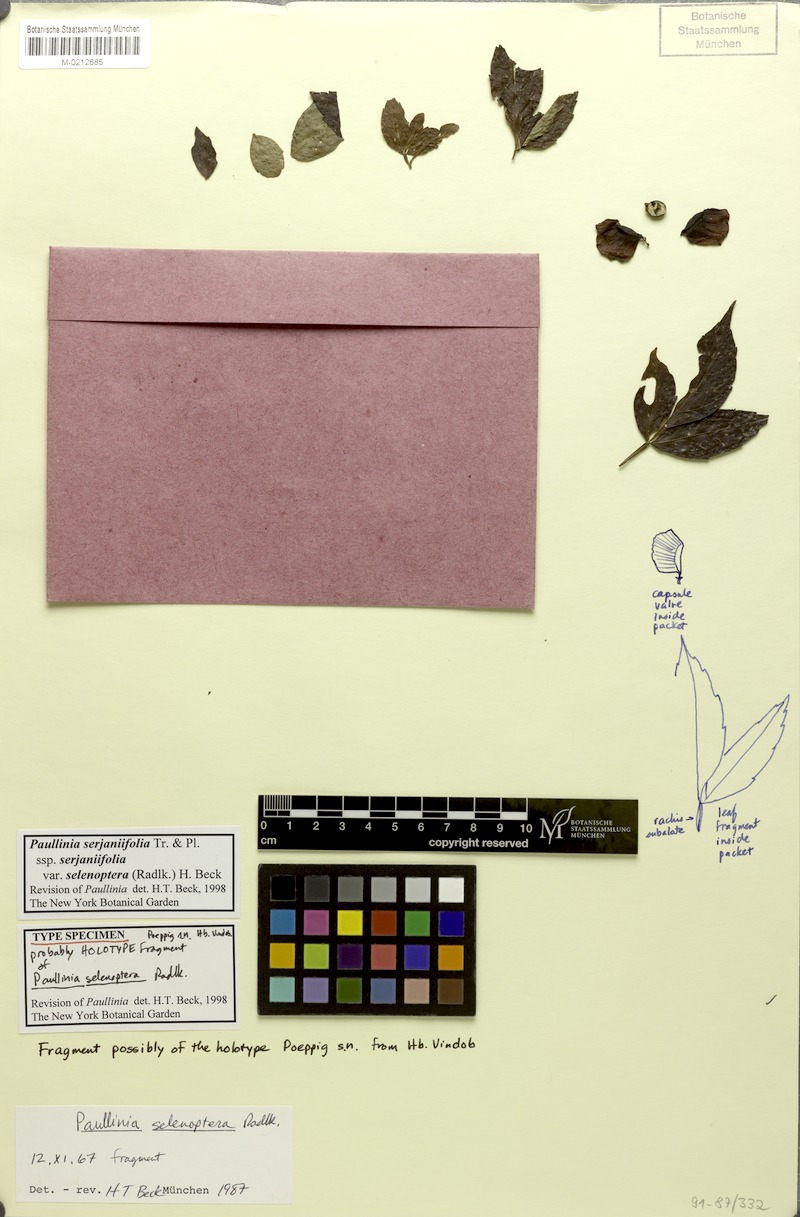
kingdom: Plantae
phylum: Tracheophyta
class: Magnoliopsida
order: Sapindales
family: Sapindaceae
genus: Paullinia
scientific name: Paullinia serjaniifolia
